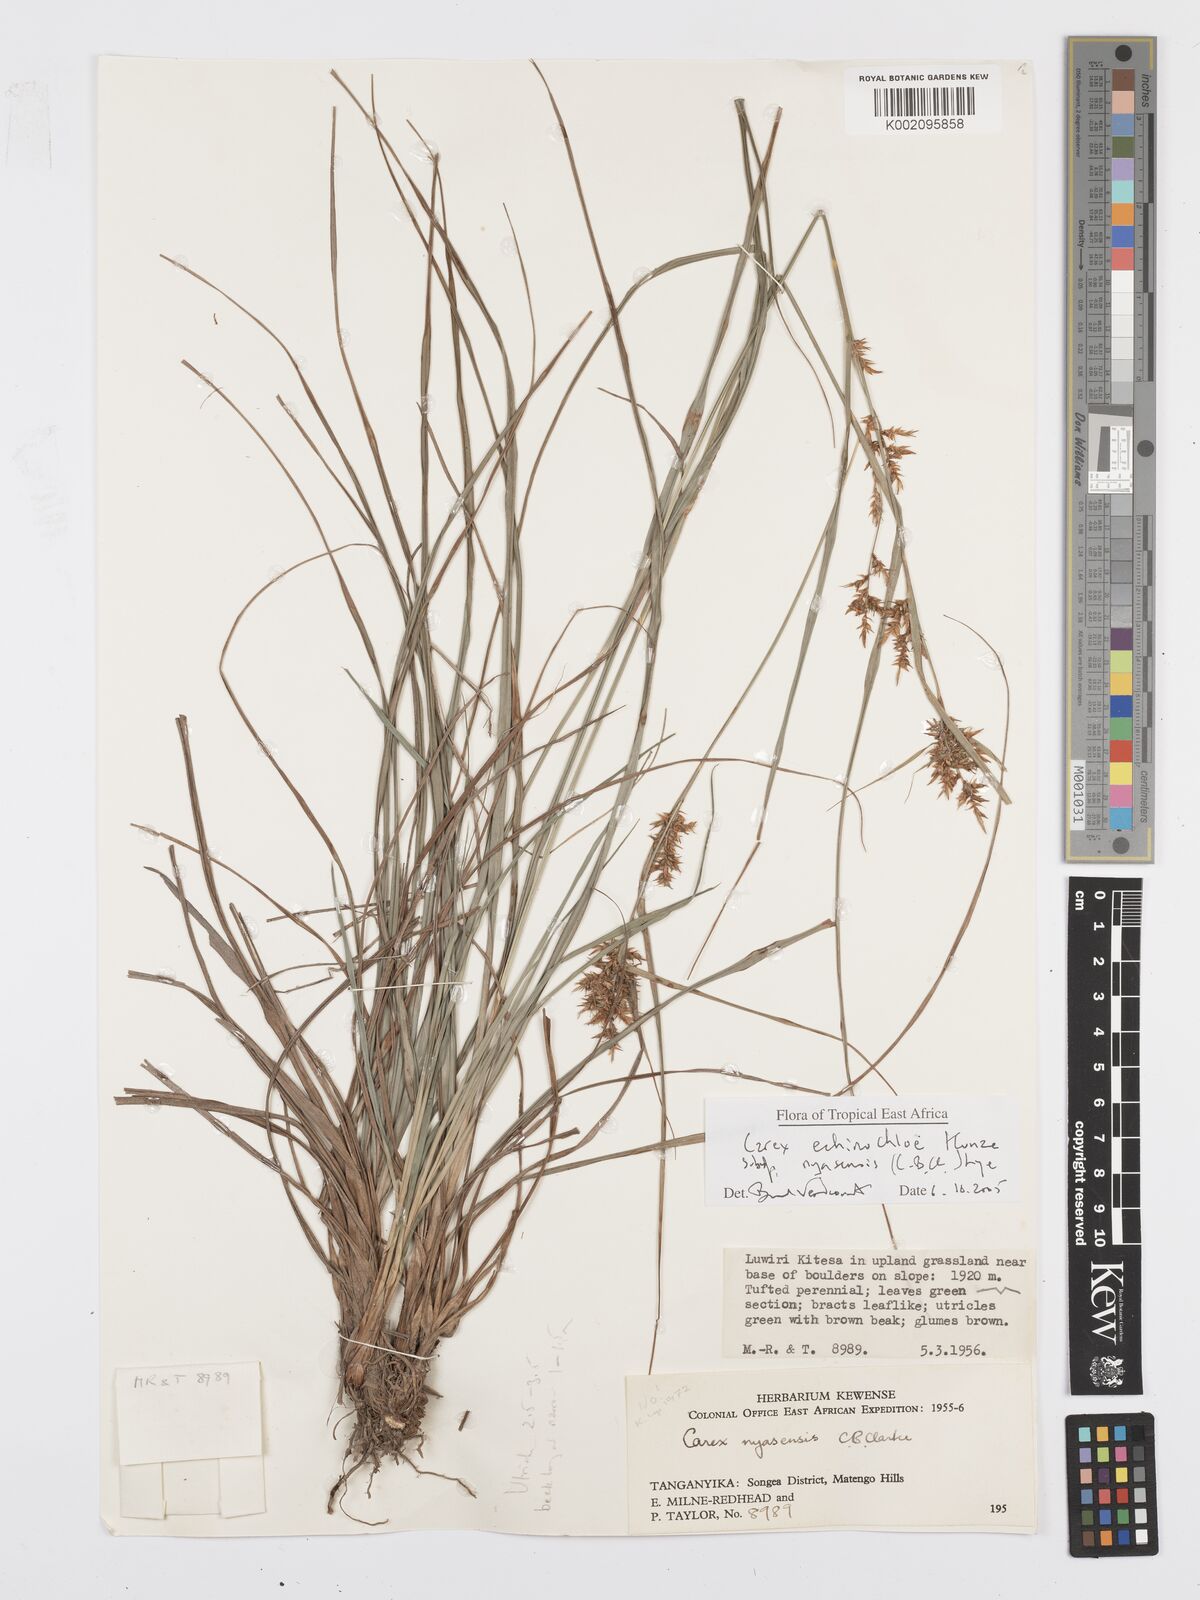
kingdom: Plantae
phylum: Tracheophyta
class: Liliopsida
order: Poales
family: Cyperaceae
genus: Carex
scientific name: Carex spicatopaniculata
